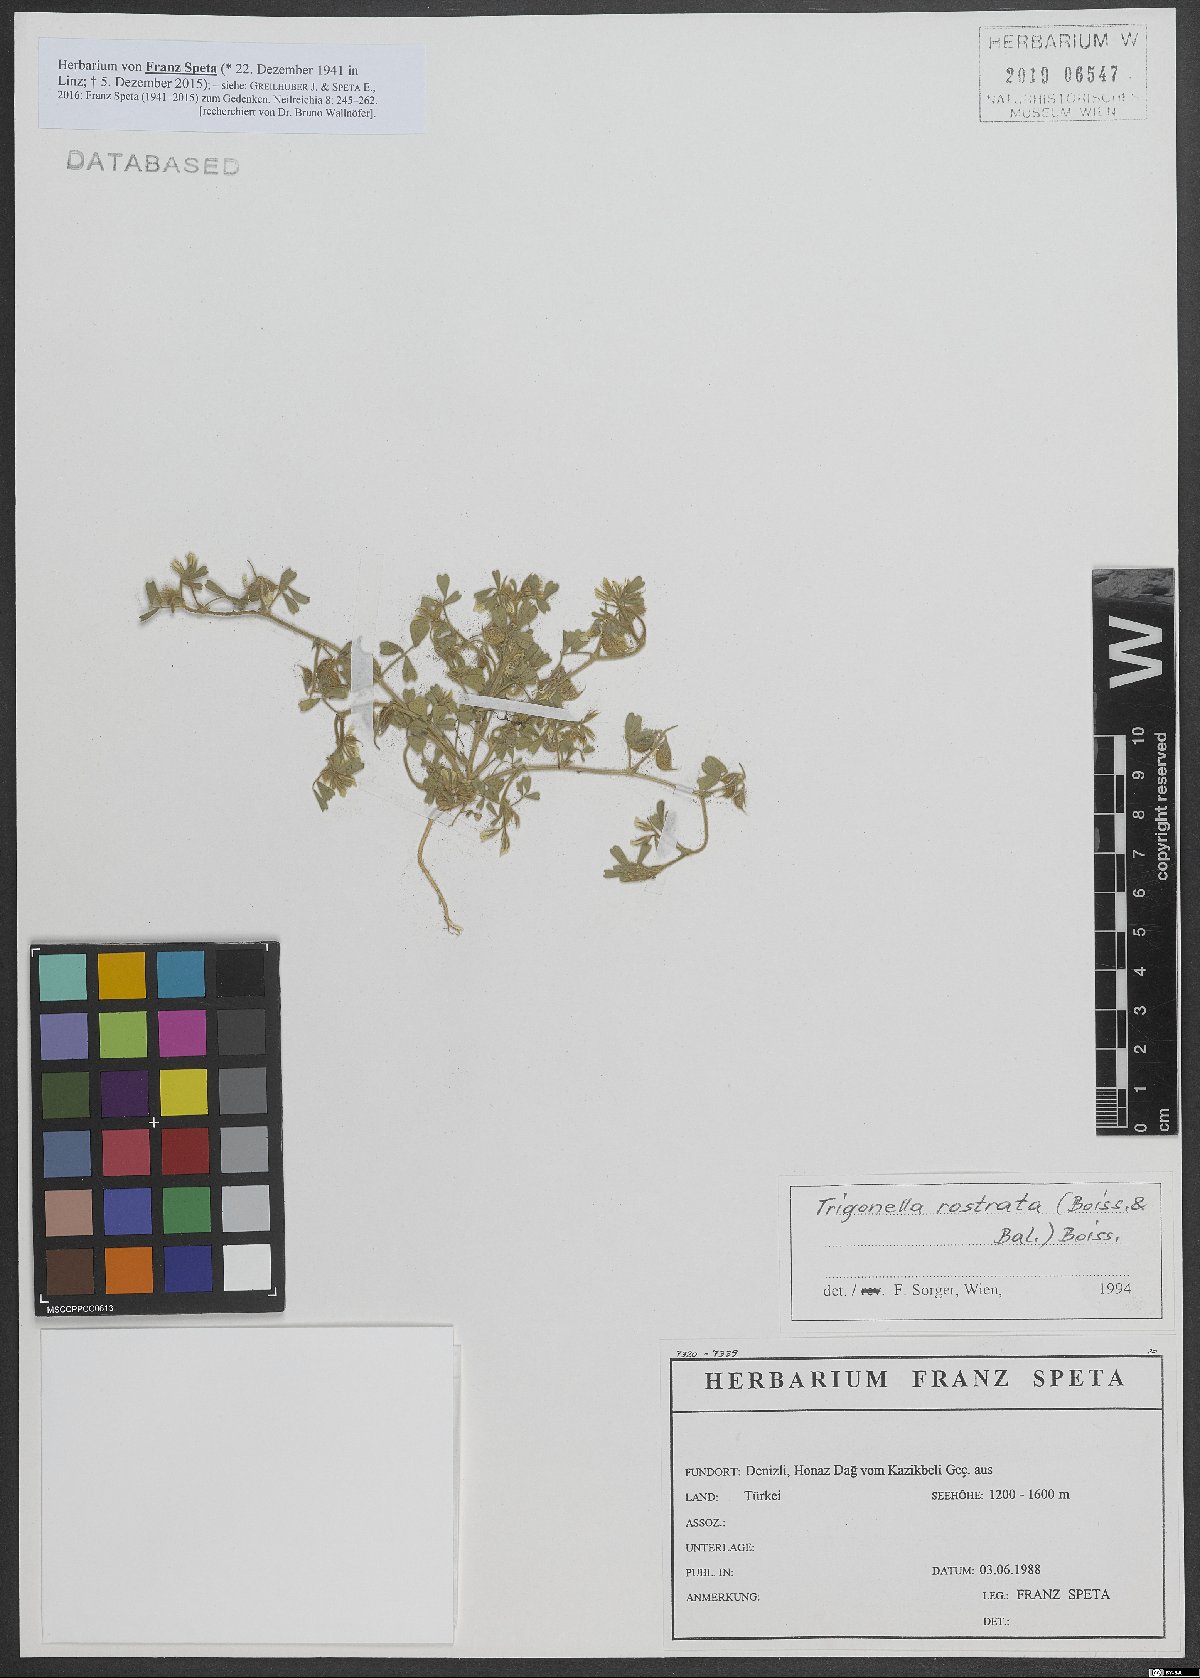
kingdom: Plantae
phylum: Tracheophyta
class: Magnoliopsida
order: Fabales
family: Fabaceae
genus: Trigonella
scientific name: Trigonella
